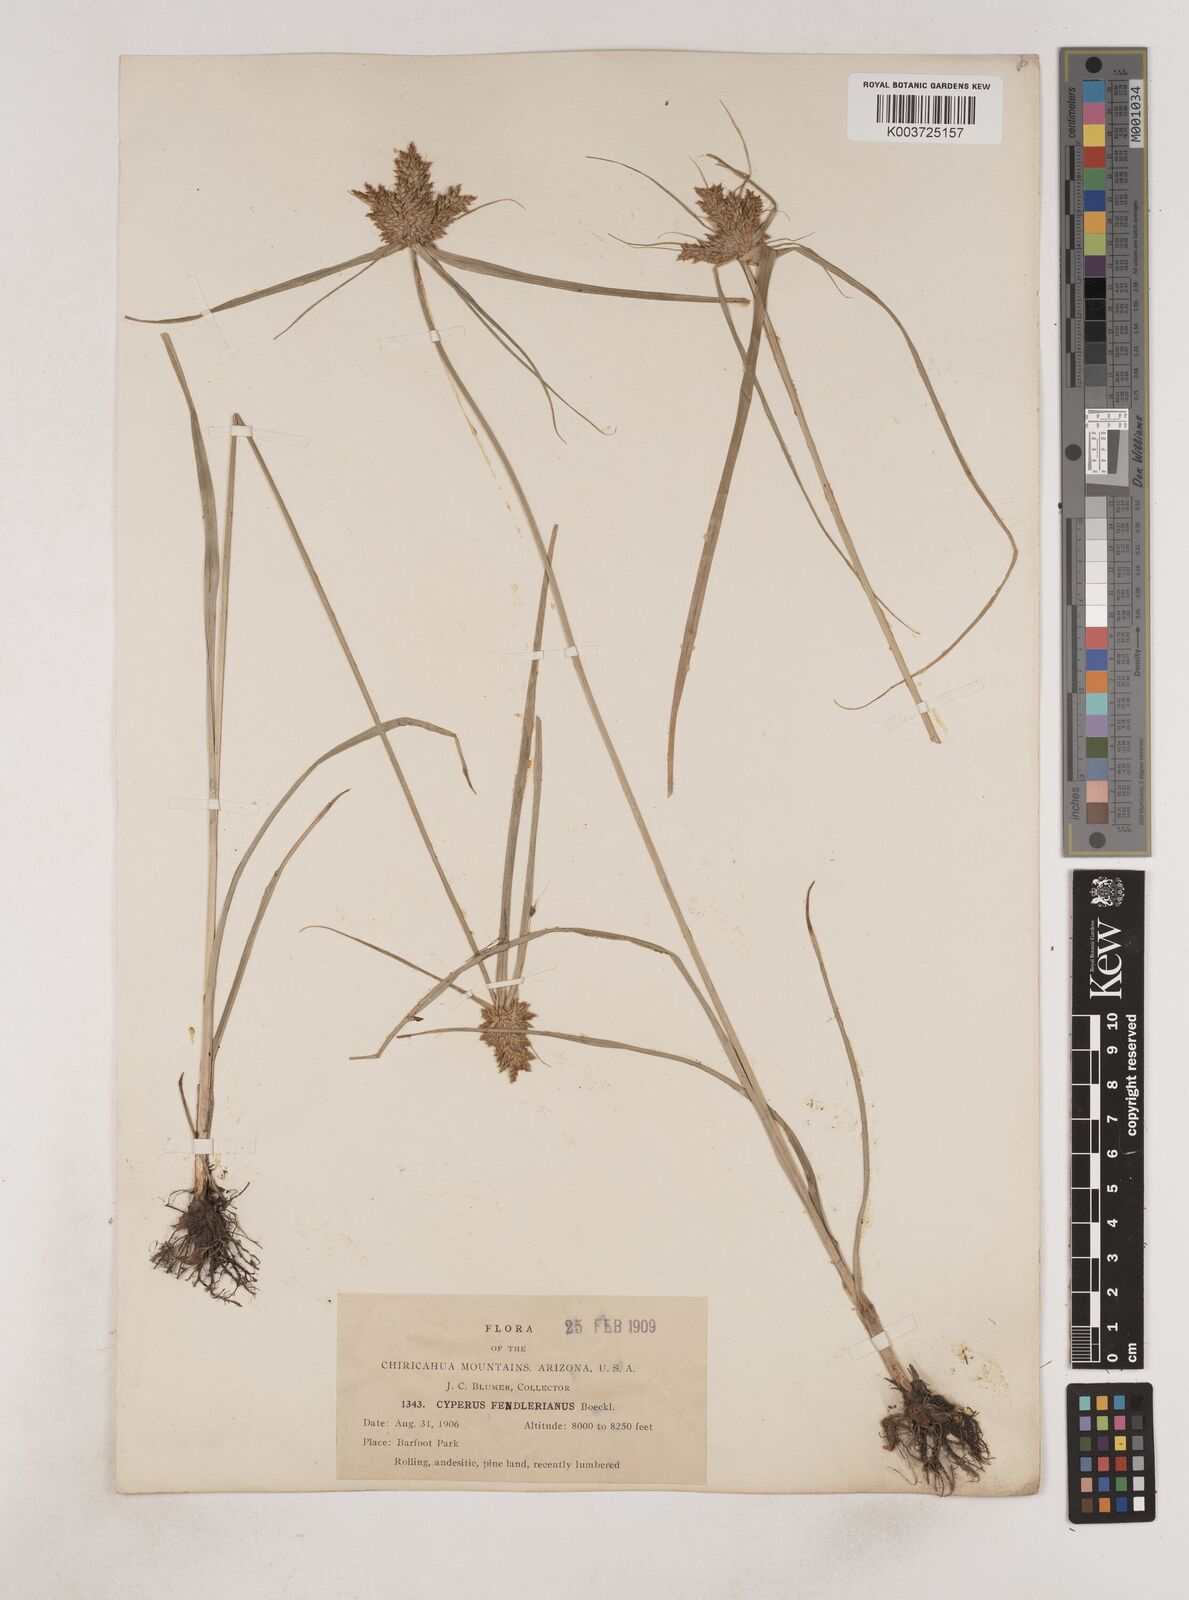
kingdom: Plantae
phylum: Tracheophyta
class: Liliopsida
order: Poales
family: Cyperaceae
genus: Cyperus
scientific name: Cyperus fendlerianus
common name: Fendler flat sedge
